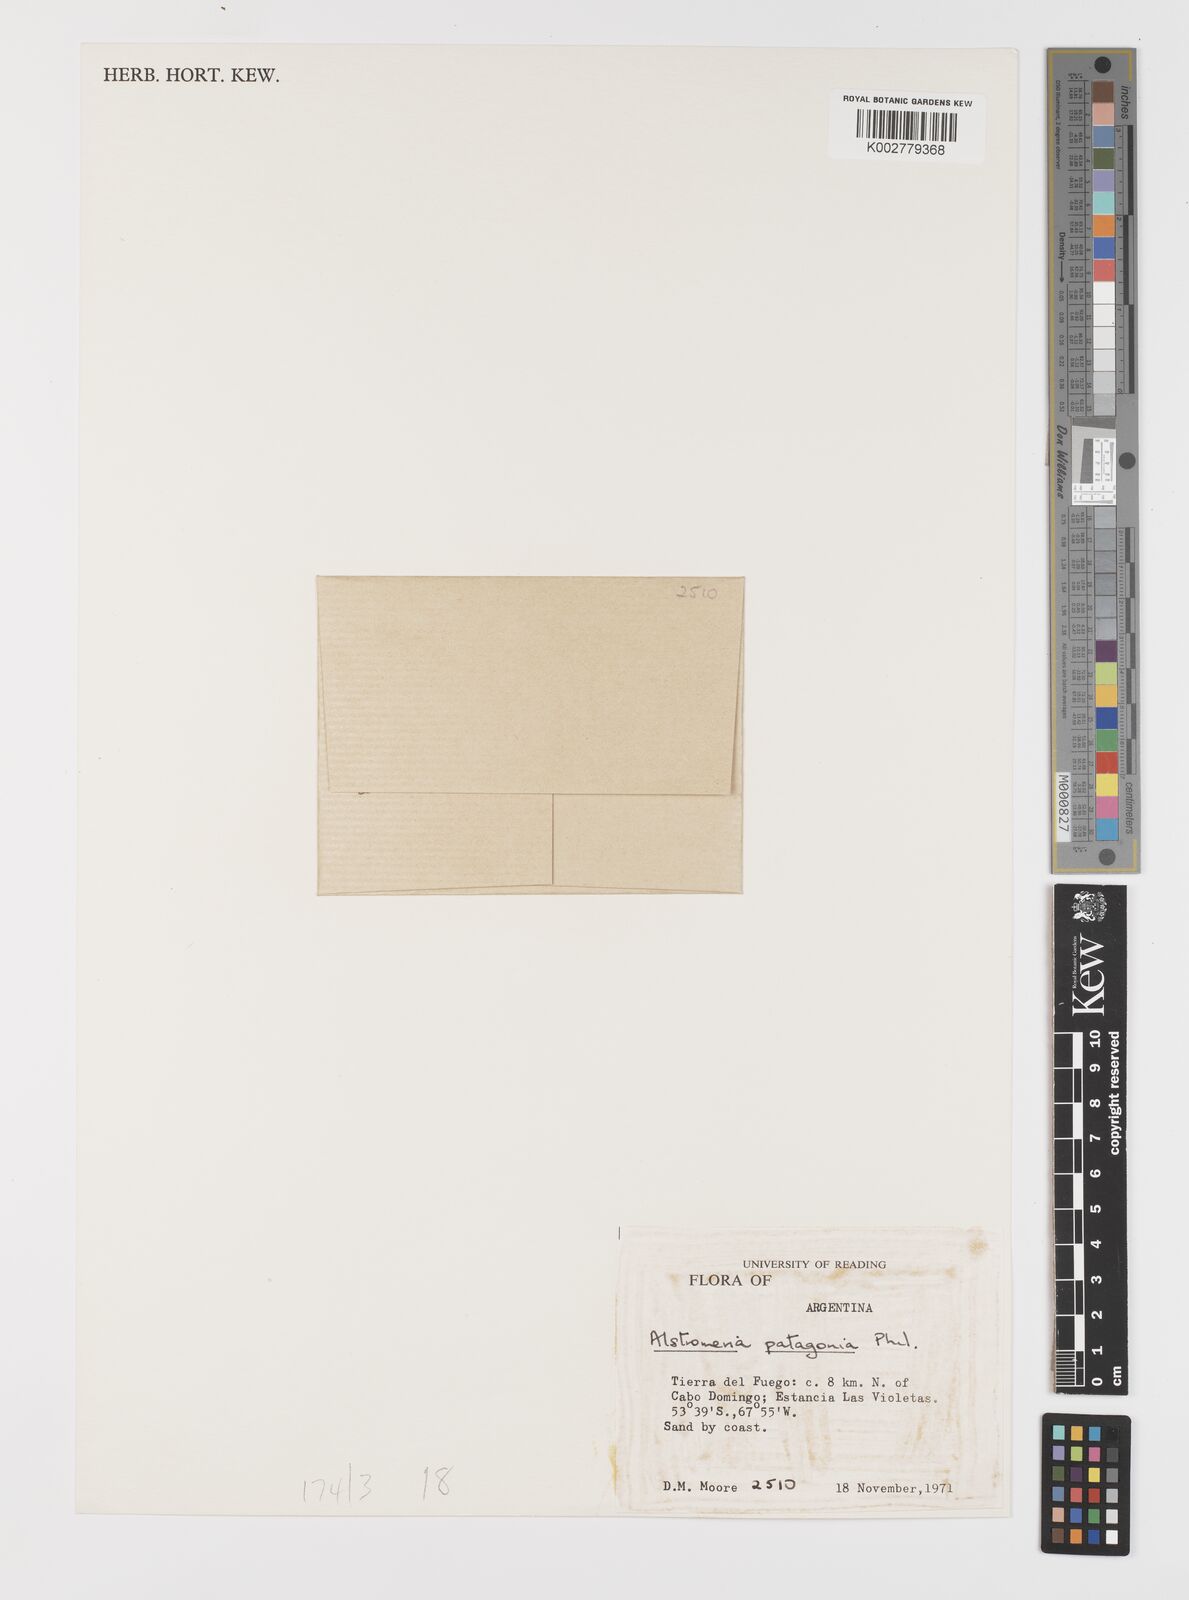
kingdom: Plantae
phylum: Tracheophyta
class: Liliopsida
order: Liliales
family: Alstroemeriaceae
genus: Alstroemeria
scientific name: Alstroemeria patagonica
